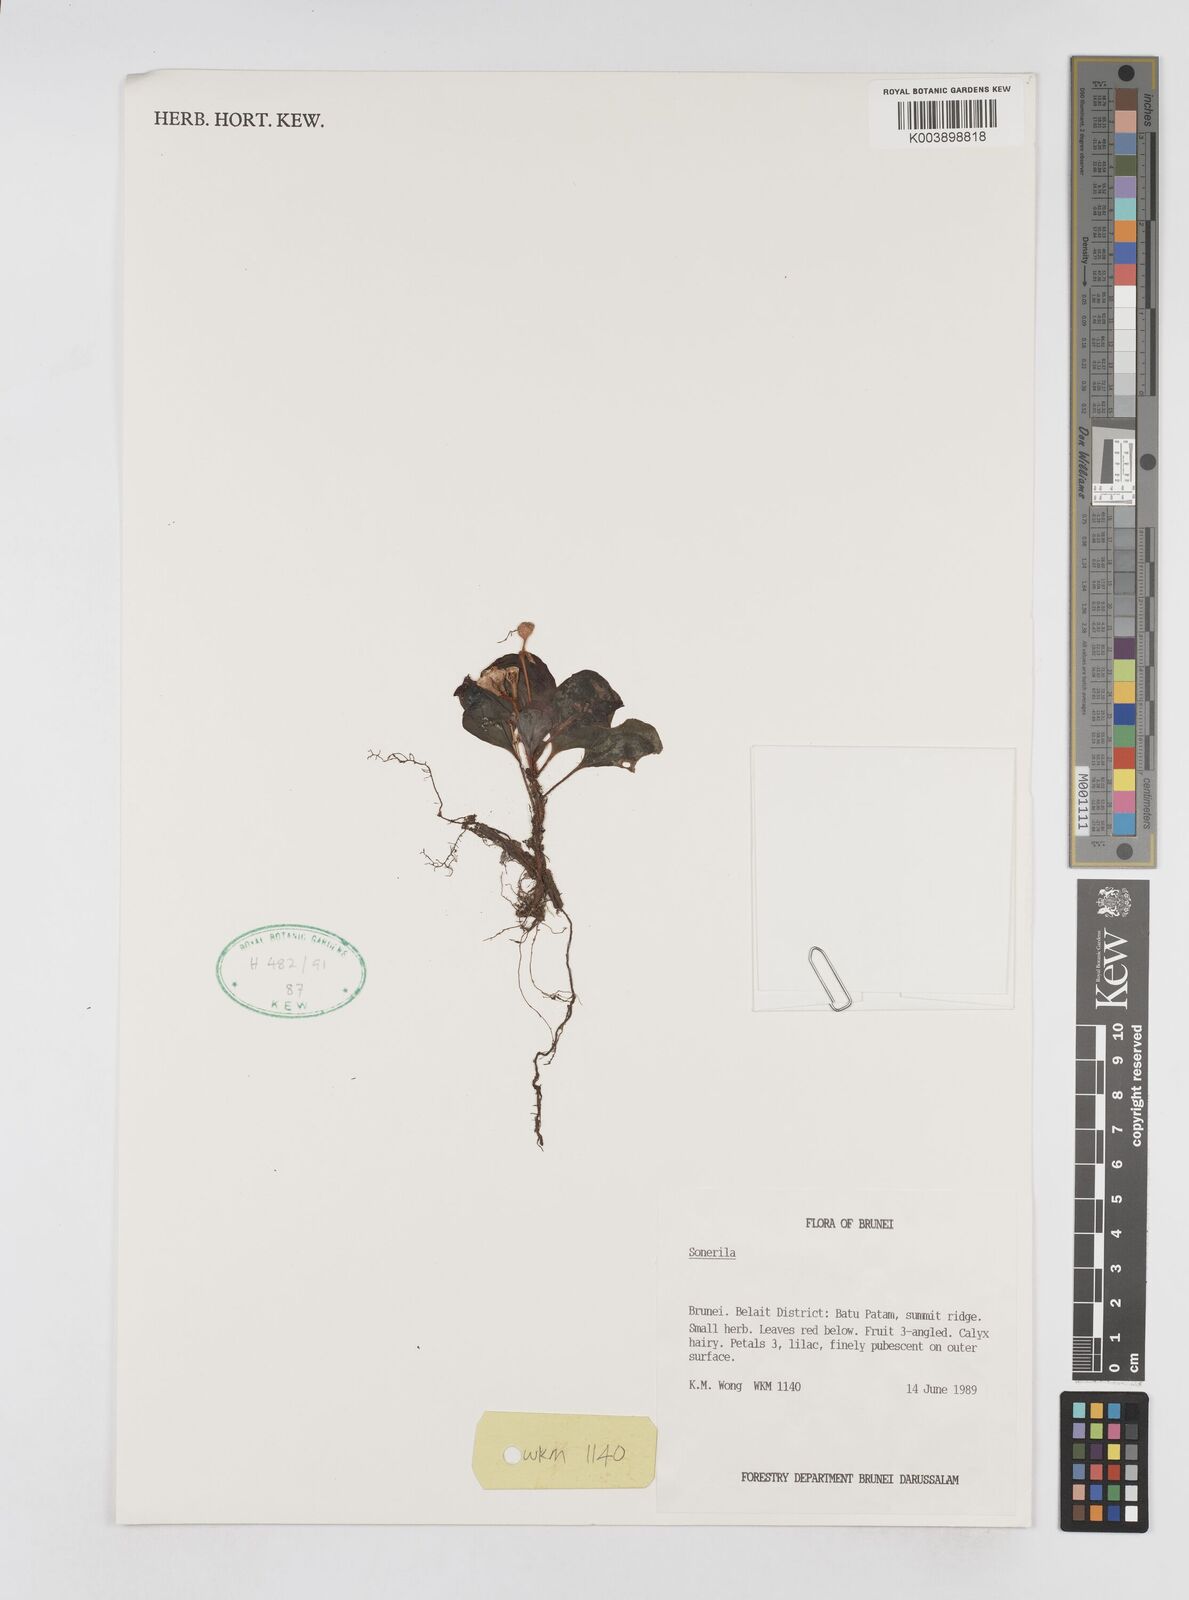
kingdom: Plantae
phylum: Tracheophyta
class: Magnoliopsida
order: Myrtales
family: Melastomataceae
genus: Sonerila
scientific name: Sonerila
